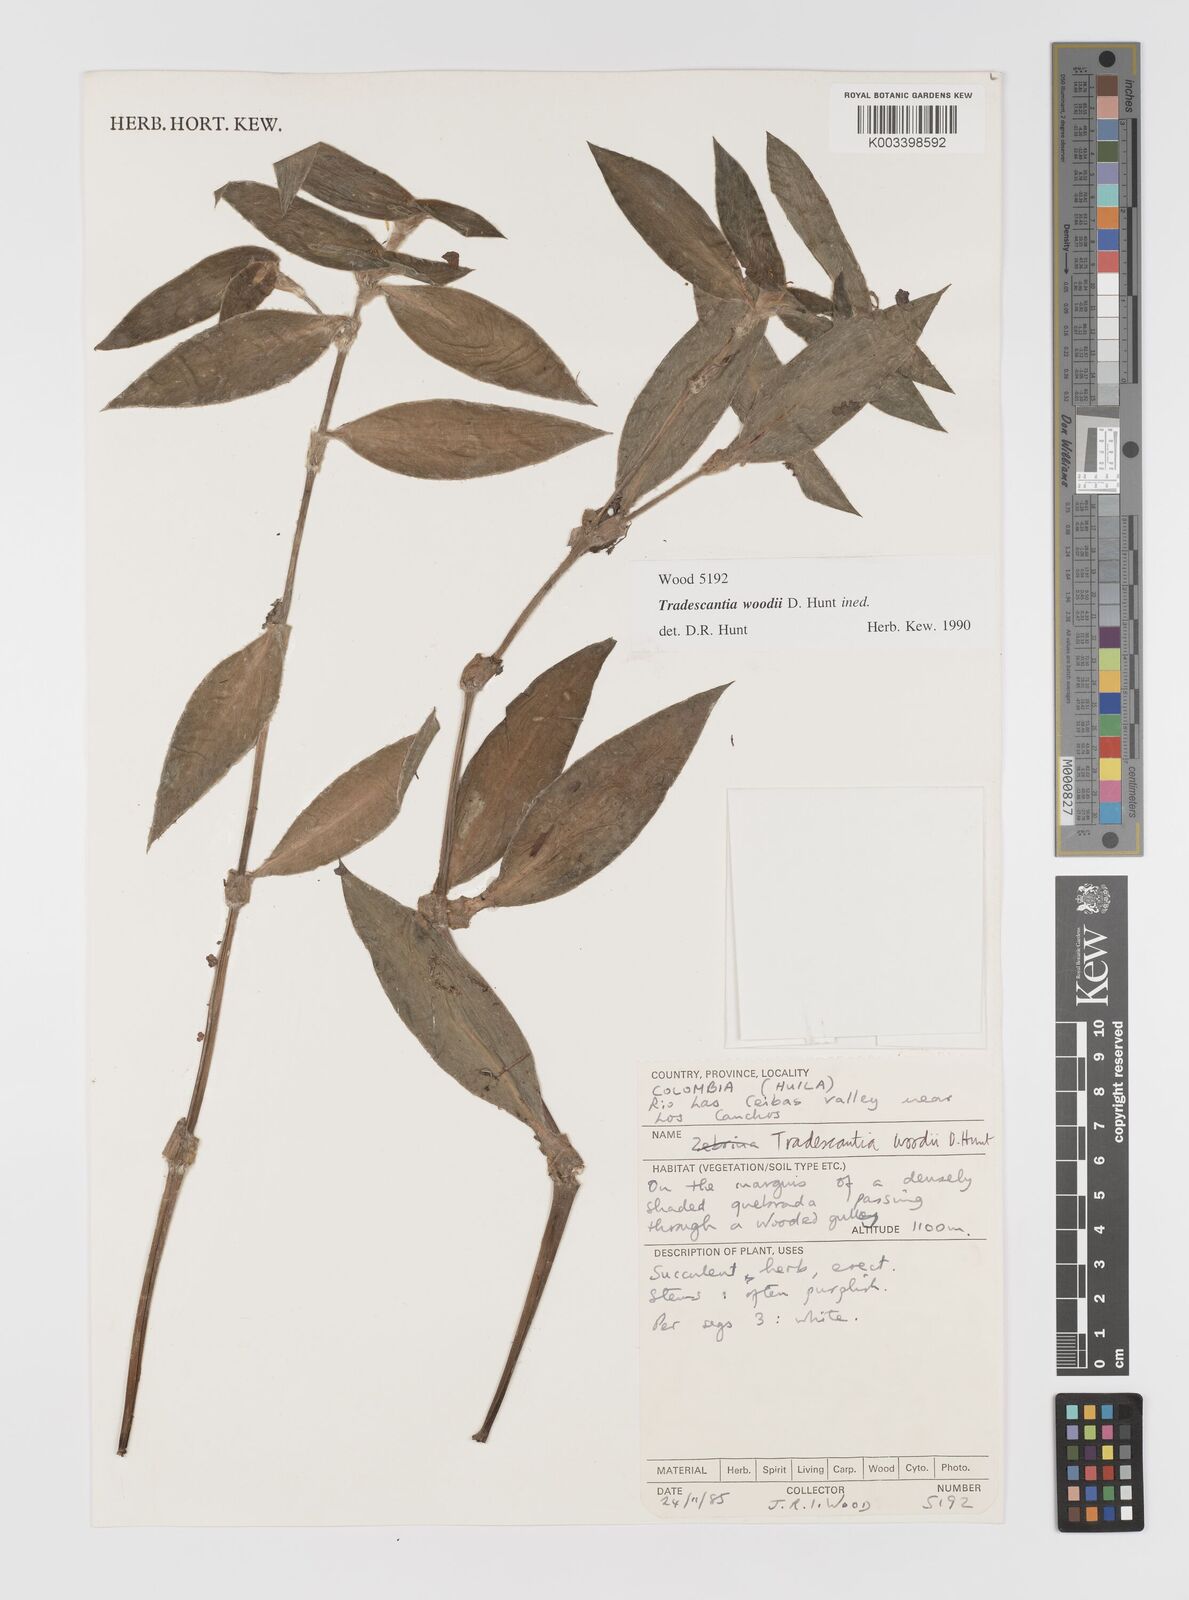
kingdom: Plantae
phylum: Tracheophyta
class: Liliopsida
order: Commelinales
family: Commelinaceae
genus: Tradescantia
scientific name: Tradescantia
